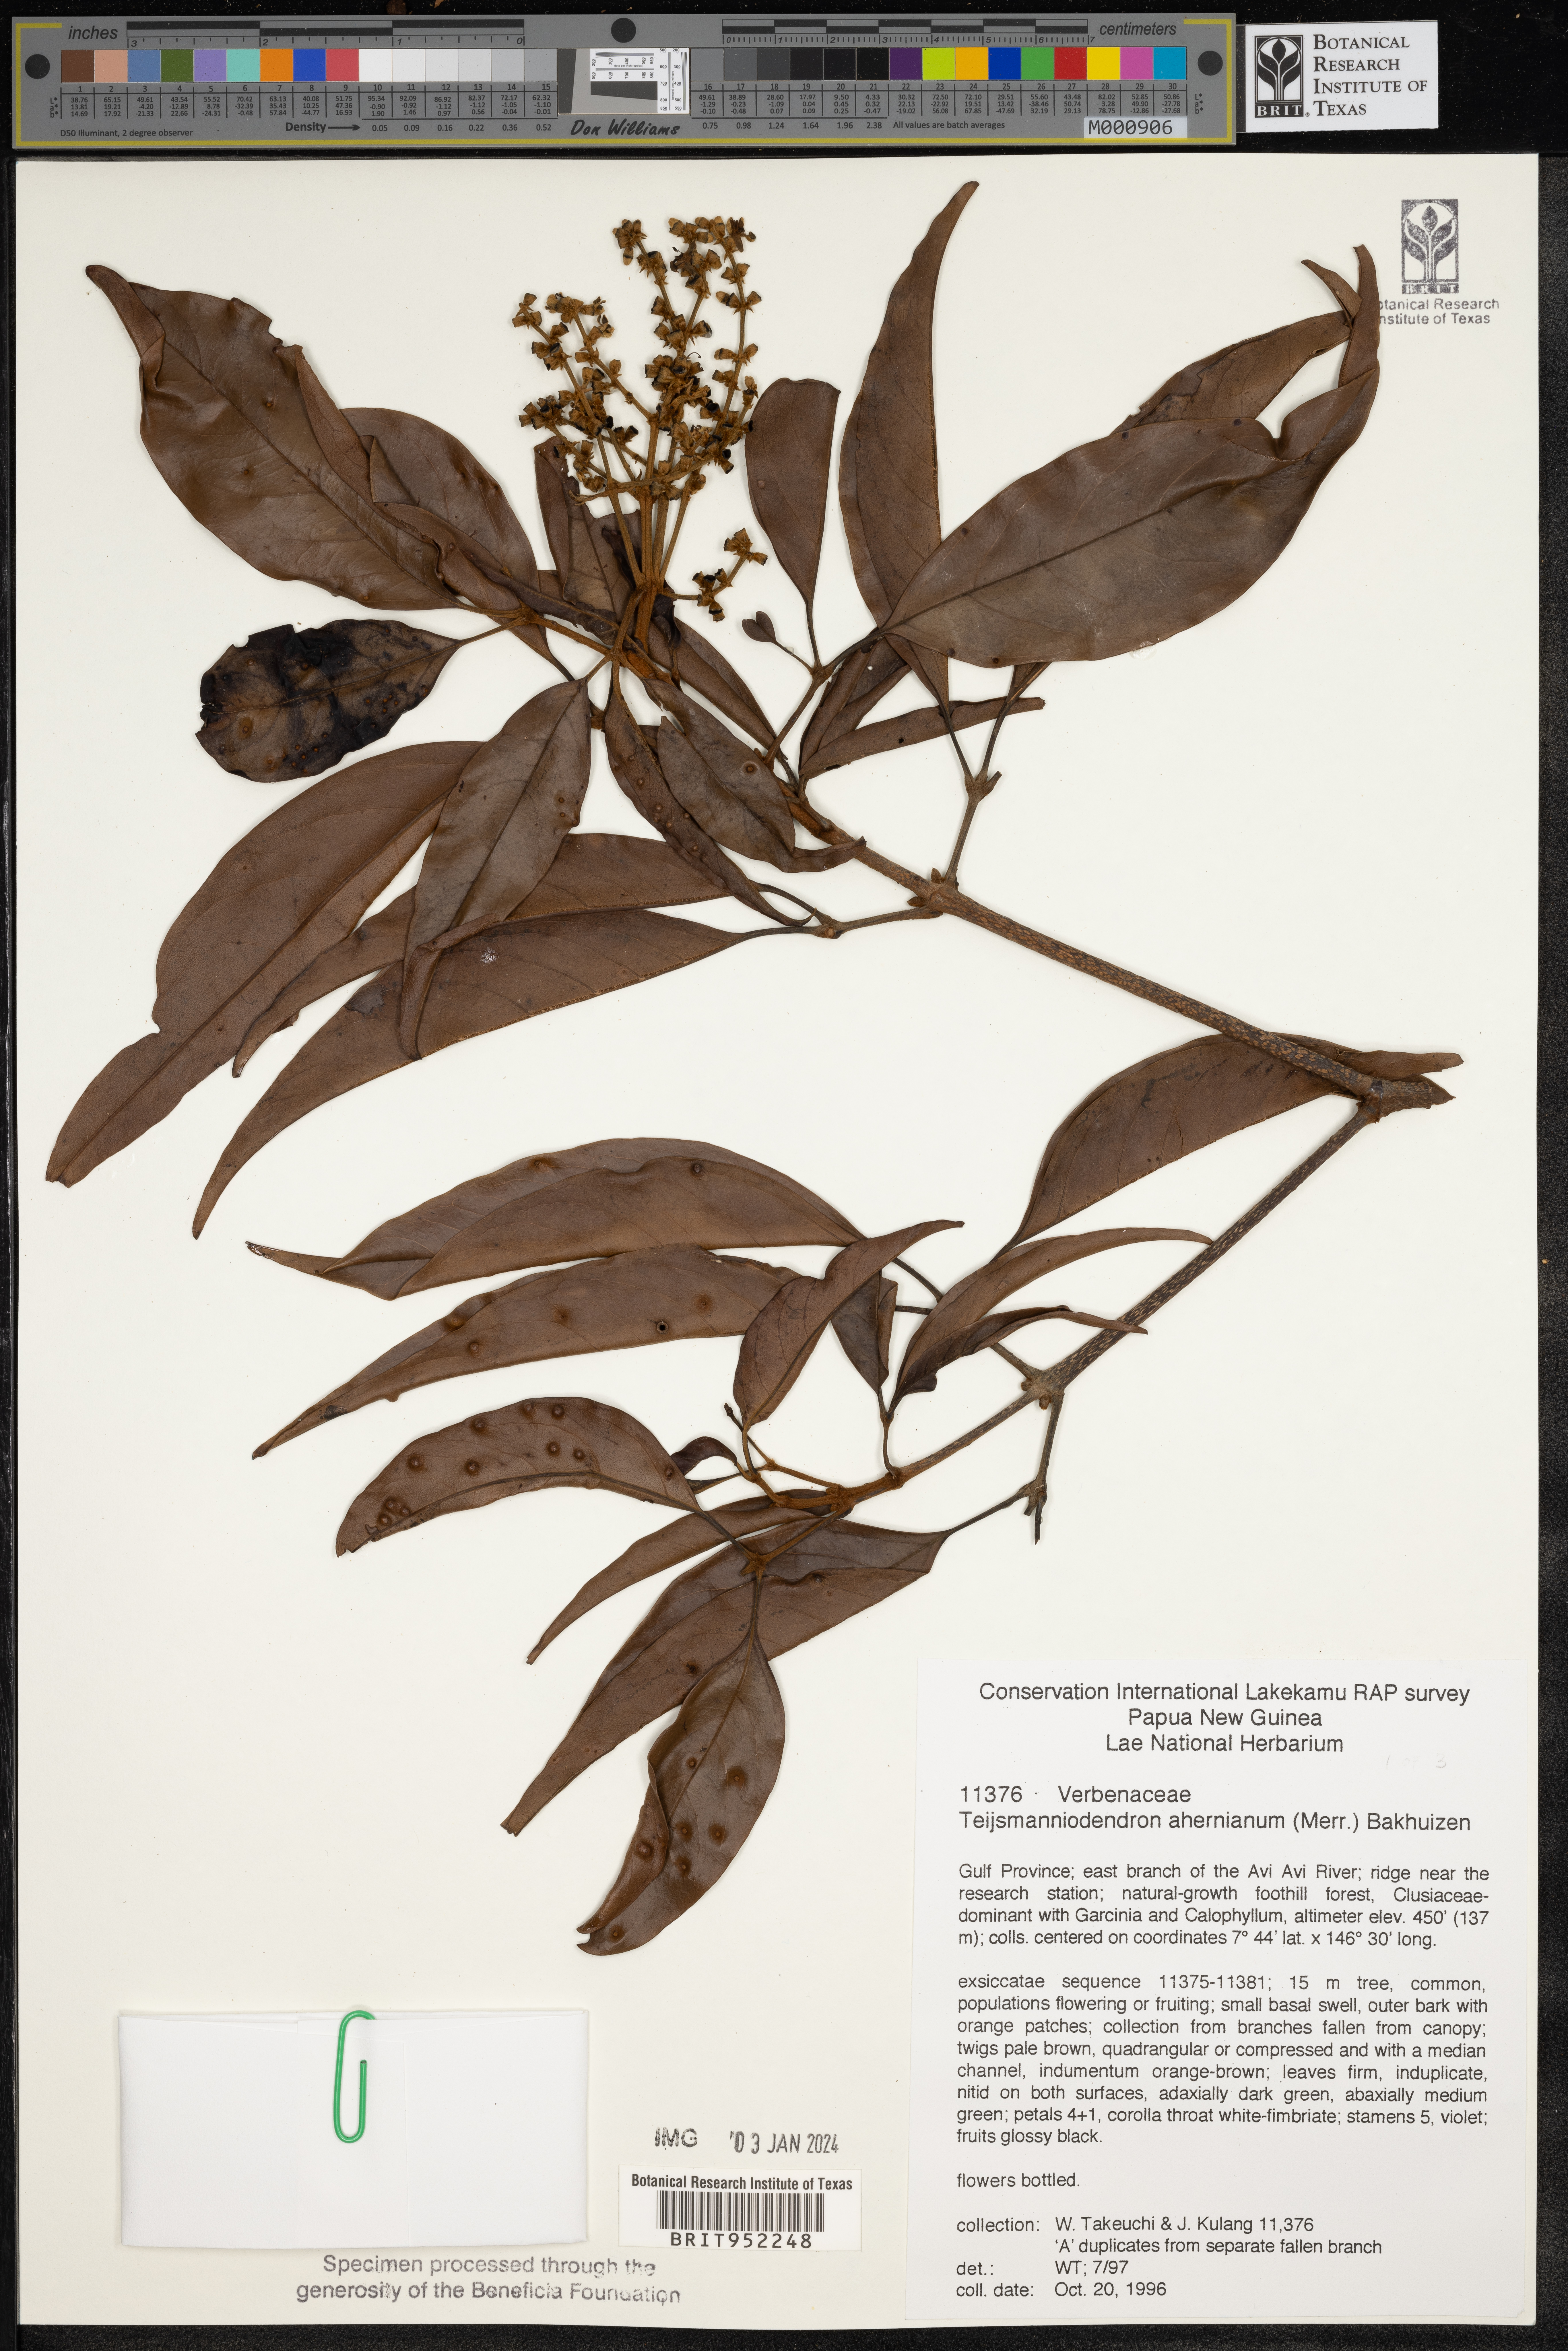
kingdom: Plantae
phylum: Tracheophyta
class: Magnoliopsida
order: Lamiales
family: Lamiaceae
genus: Teijsmanniodendron
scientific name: Teijsmanniodendron
